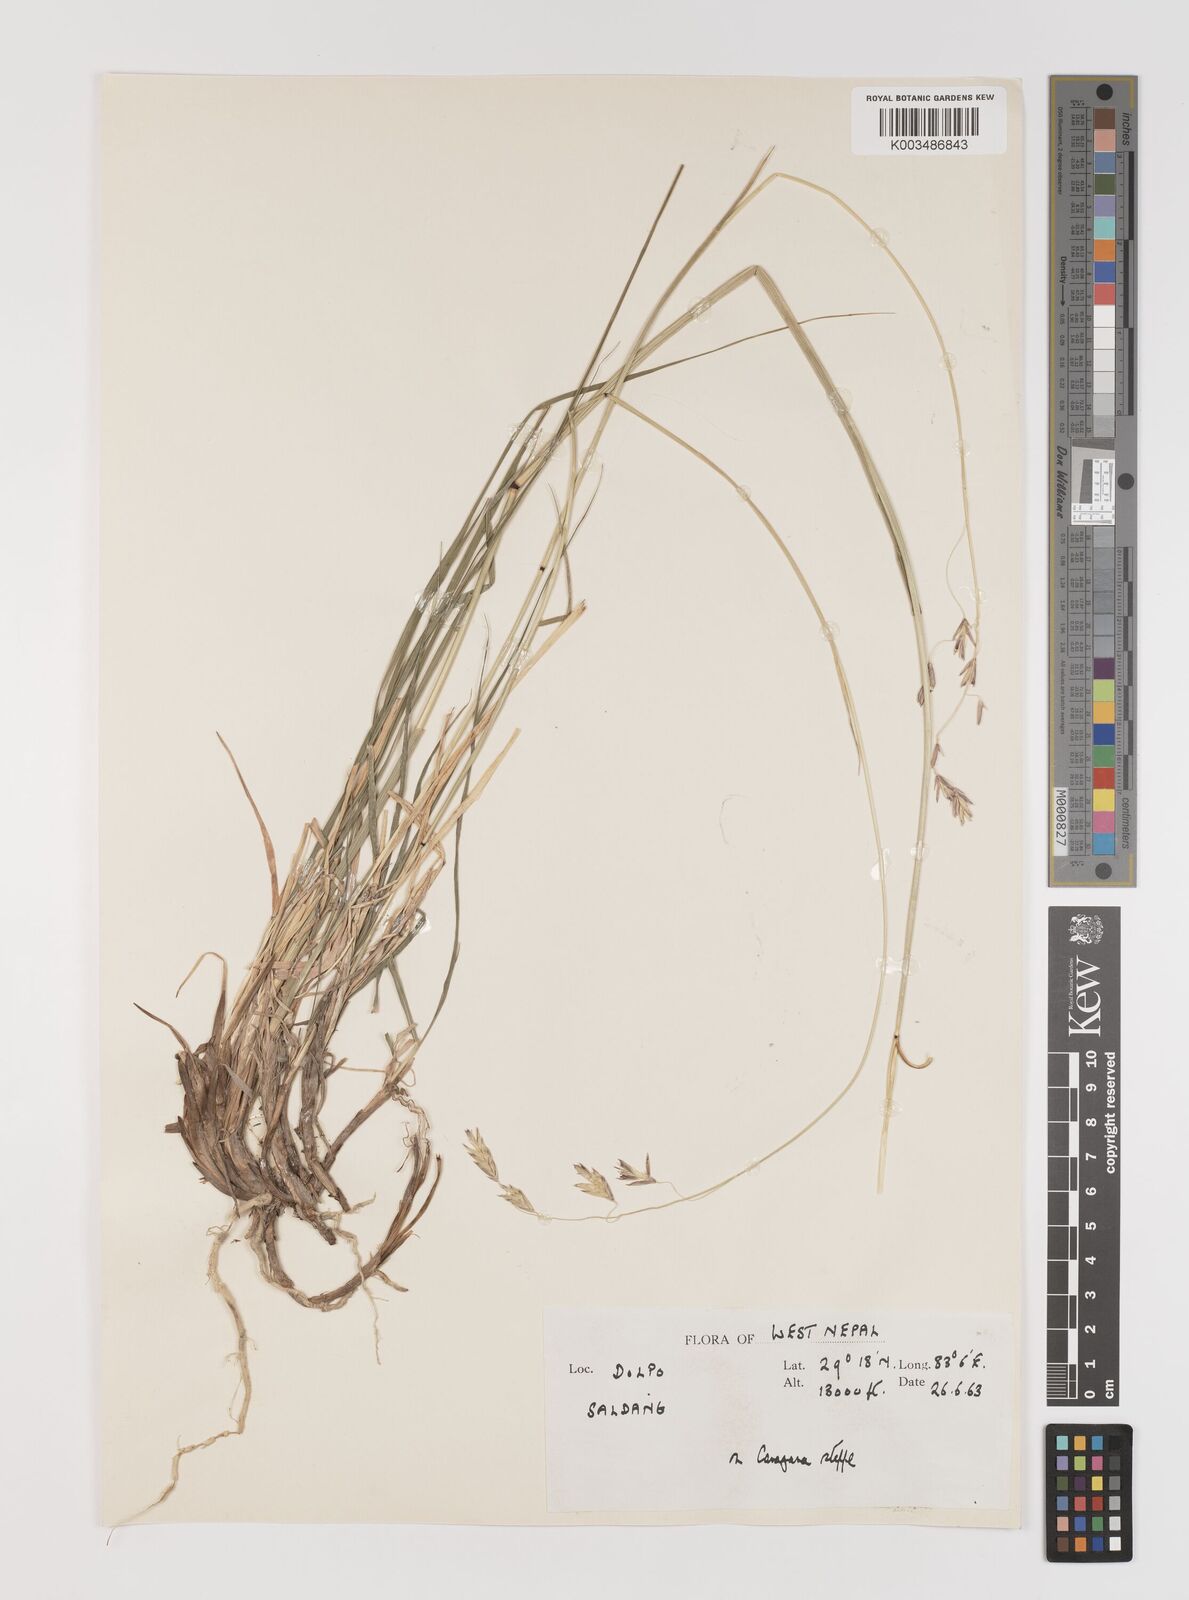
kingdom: Plantae
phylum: Tracheophyta
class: Liliopsida
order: Poales
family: Poaceae
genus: Bromus
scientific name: Bromus
